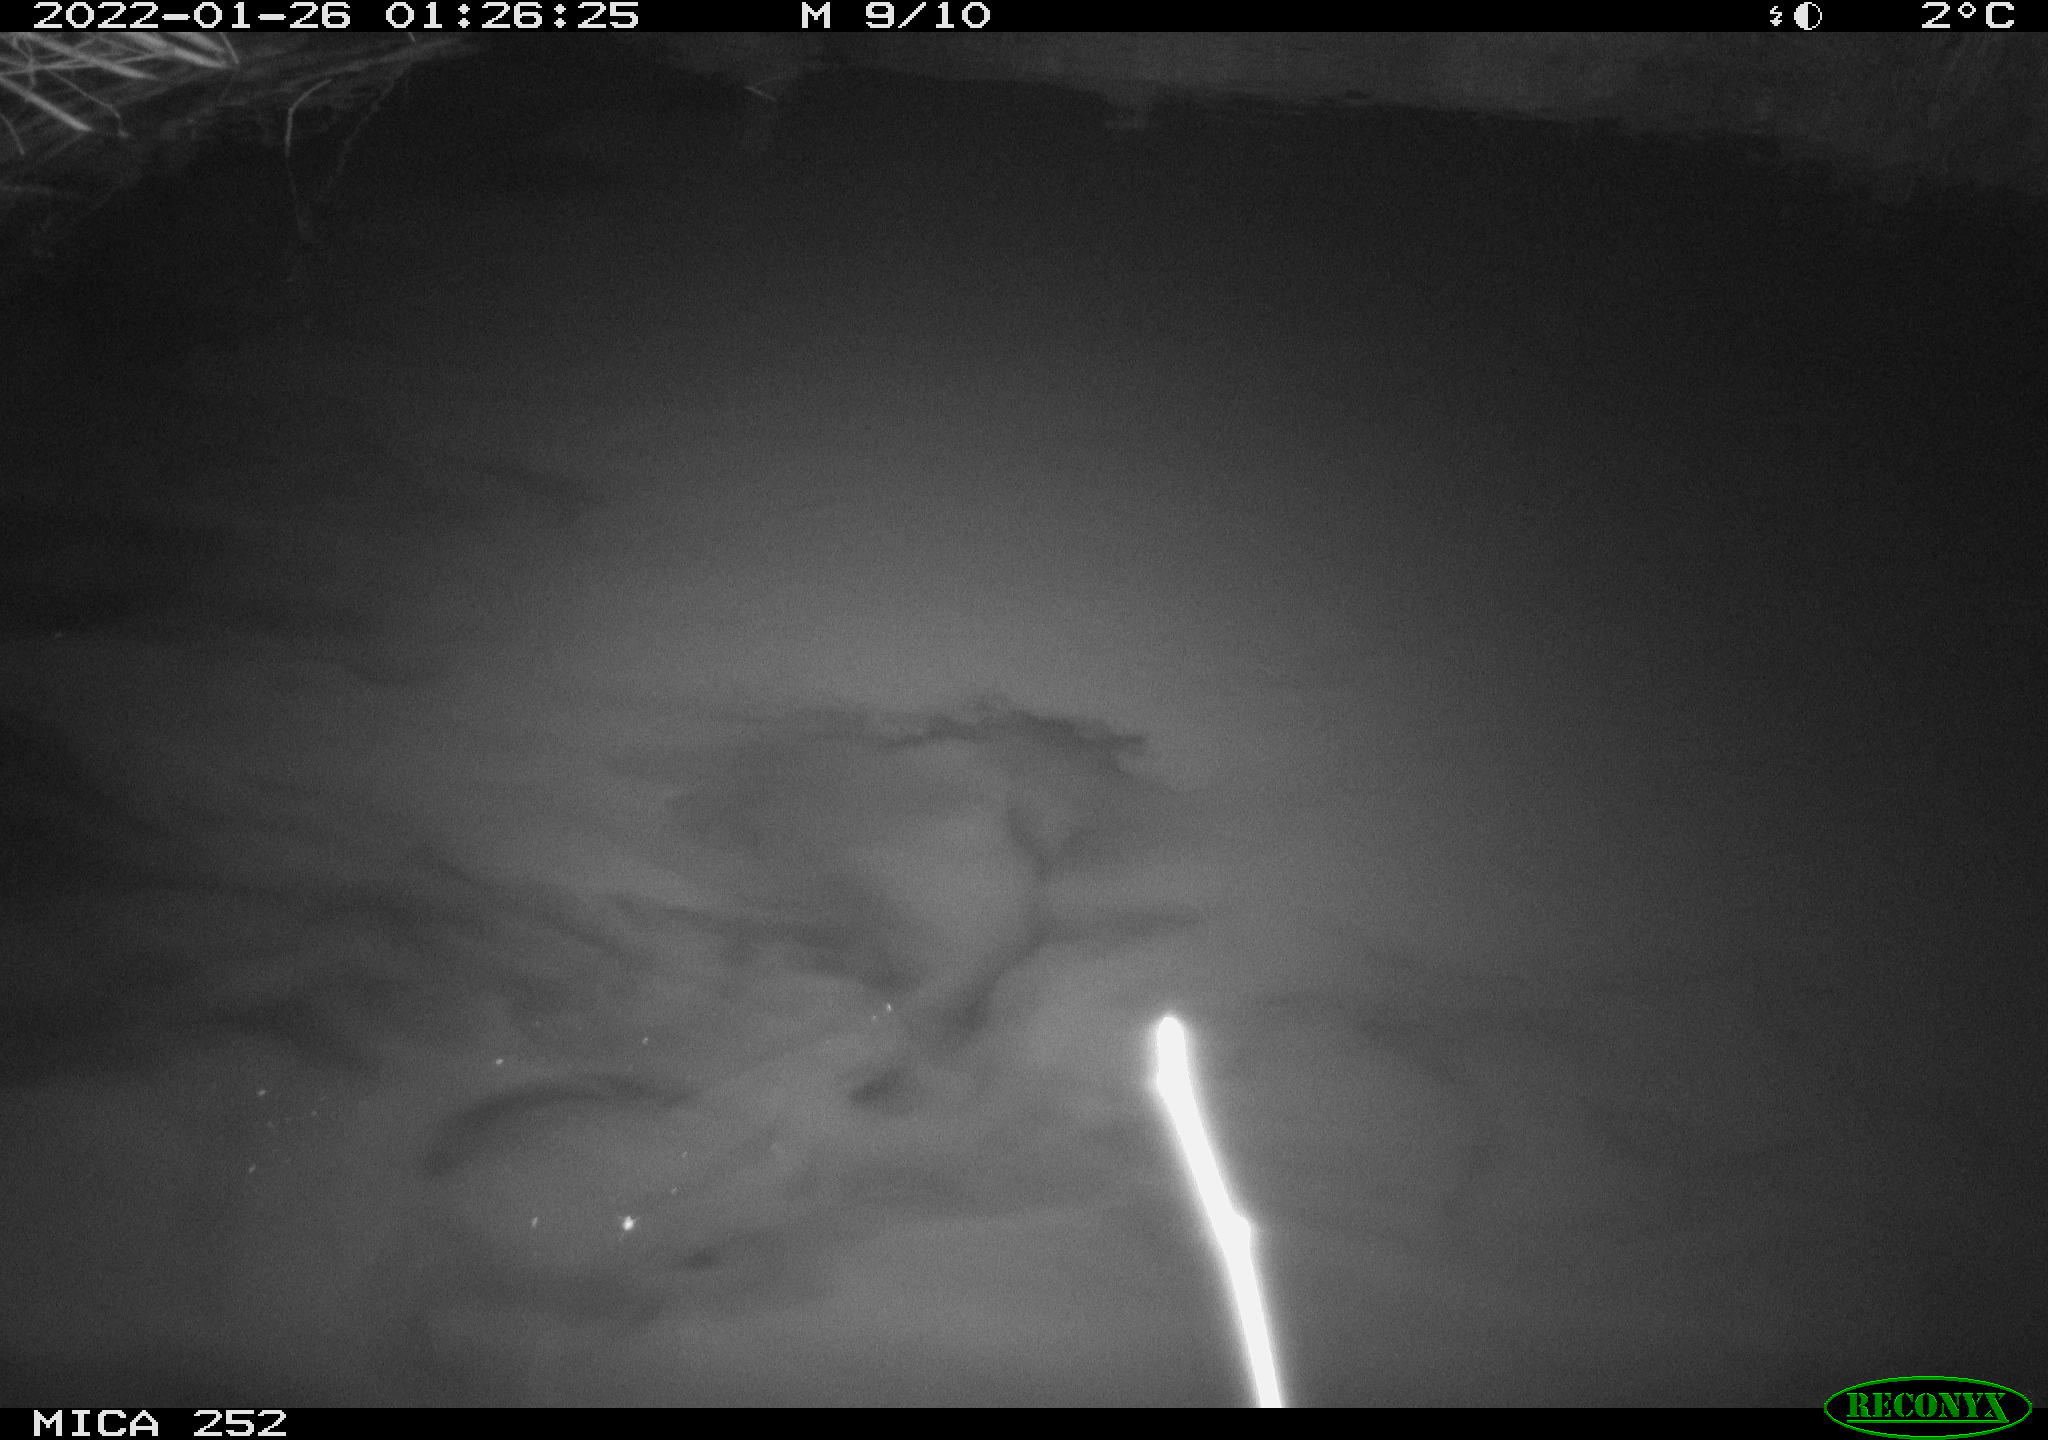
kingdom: Animalia
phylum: Chordata
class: Mammalia
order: Rodentia
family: Castoridae
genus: Castor
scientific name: Castor fiber
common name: Eurasian beaver
